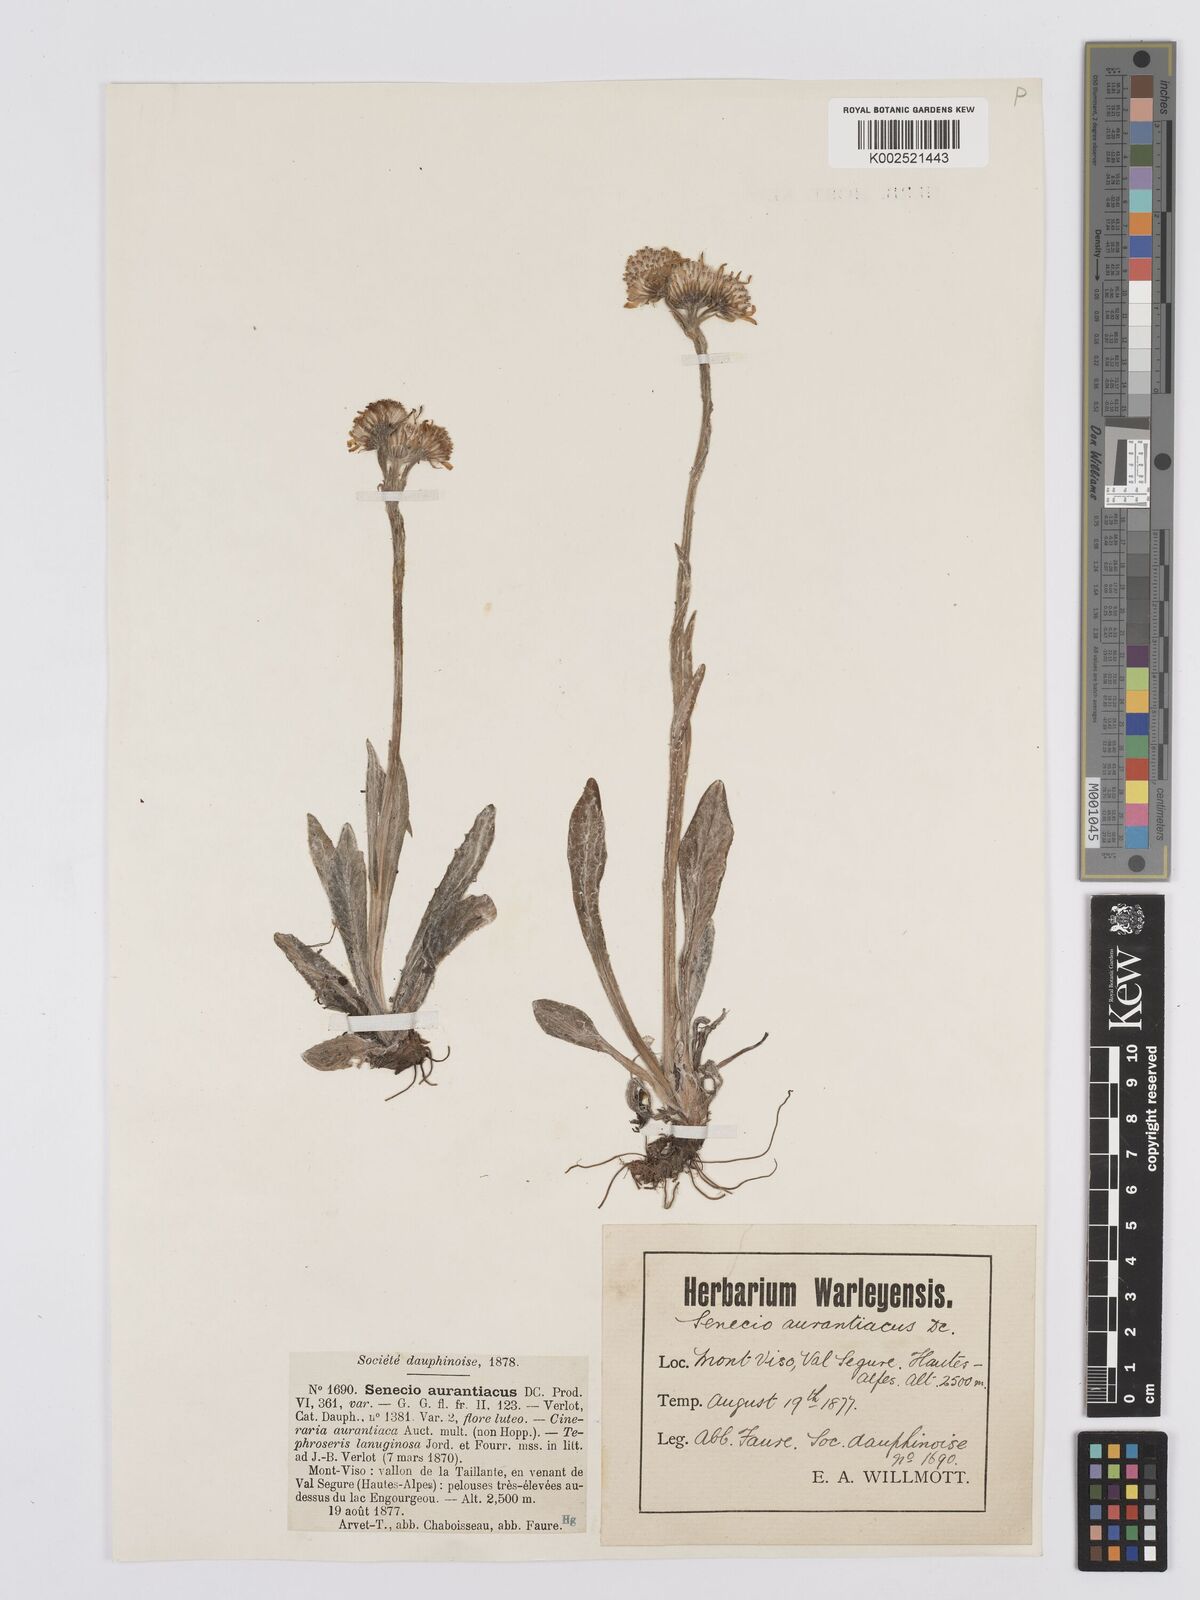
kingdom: Plantae
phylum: Tracheophyta
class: Magnoliopsida
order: Asterales
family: Asteraceae
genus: Tephroseris
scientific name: Tephroseris integrifolia
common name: Field fleawort
